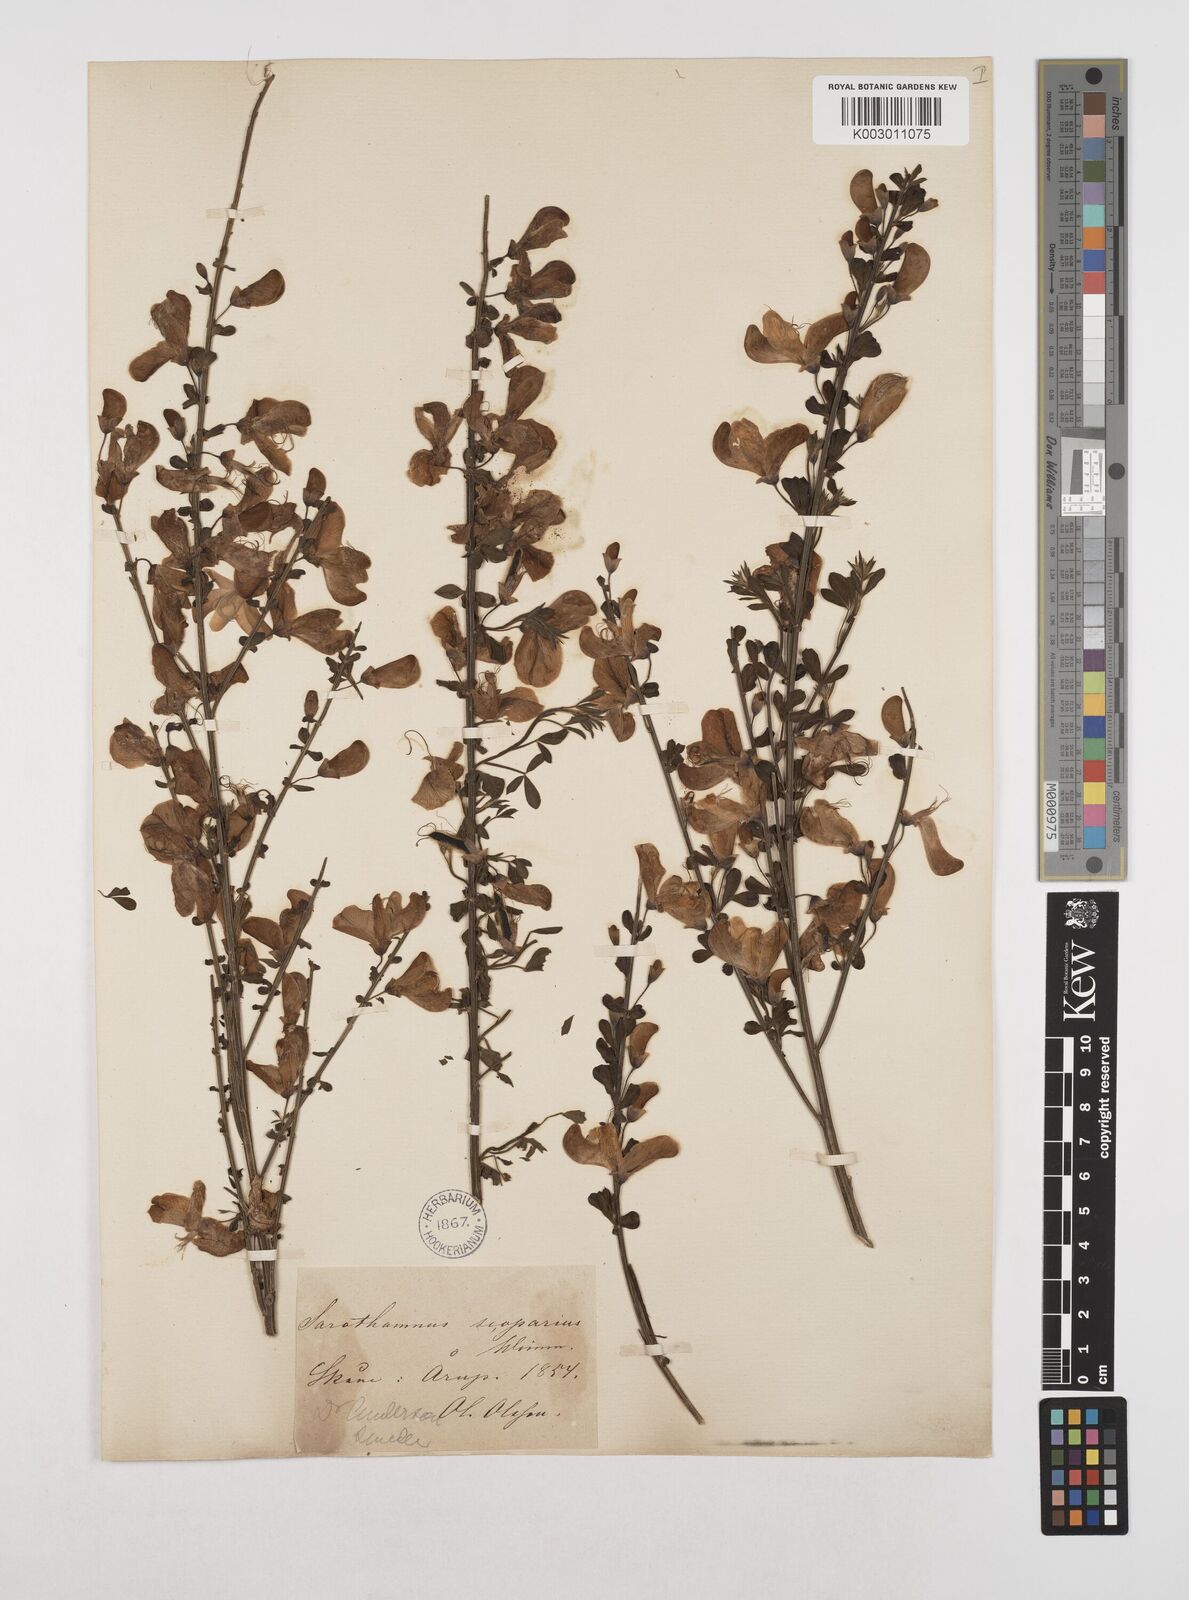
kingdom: Plantae
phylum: Tracheophyta
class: Magnoliopsida
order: Fabales
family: Fabaceae
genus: Cytisus
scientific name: Cytisus scoparius
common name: Scotch broom
